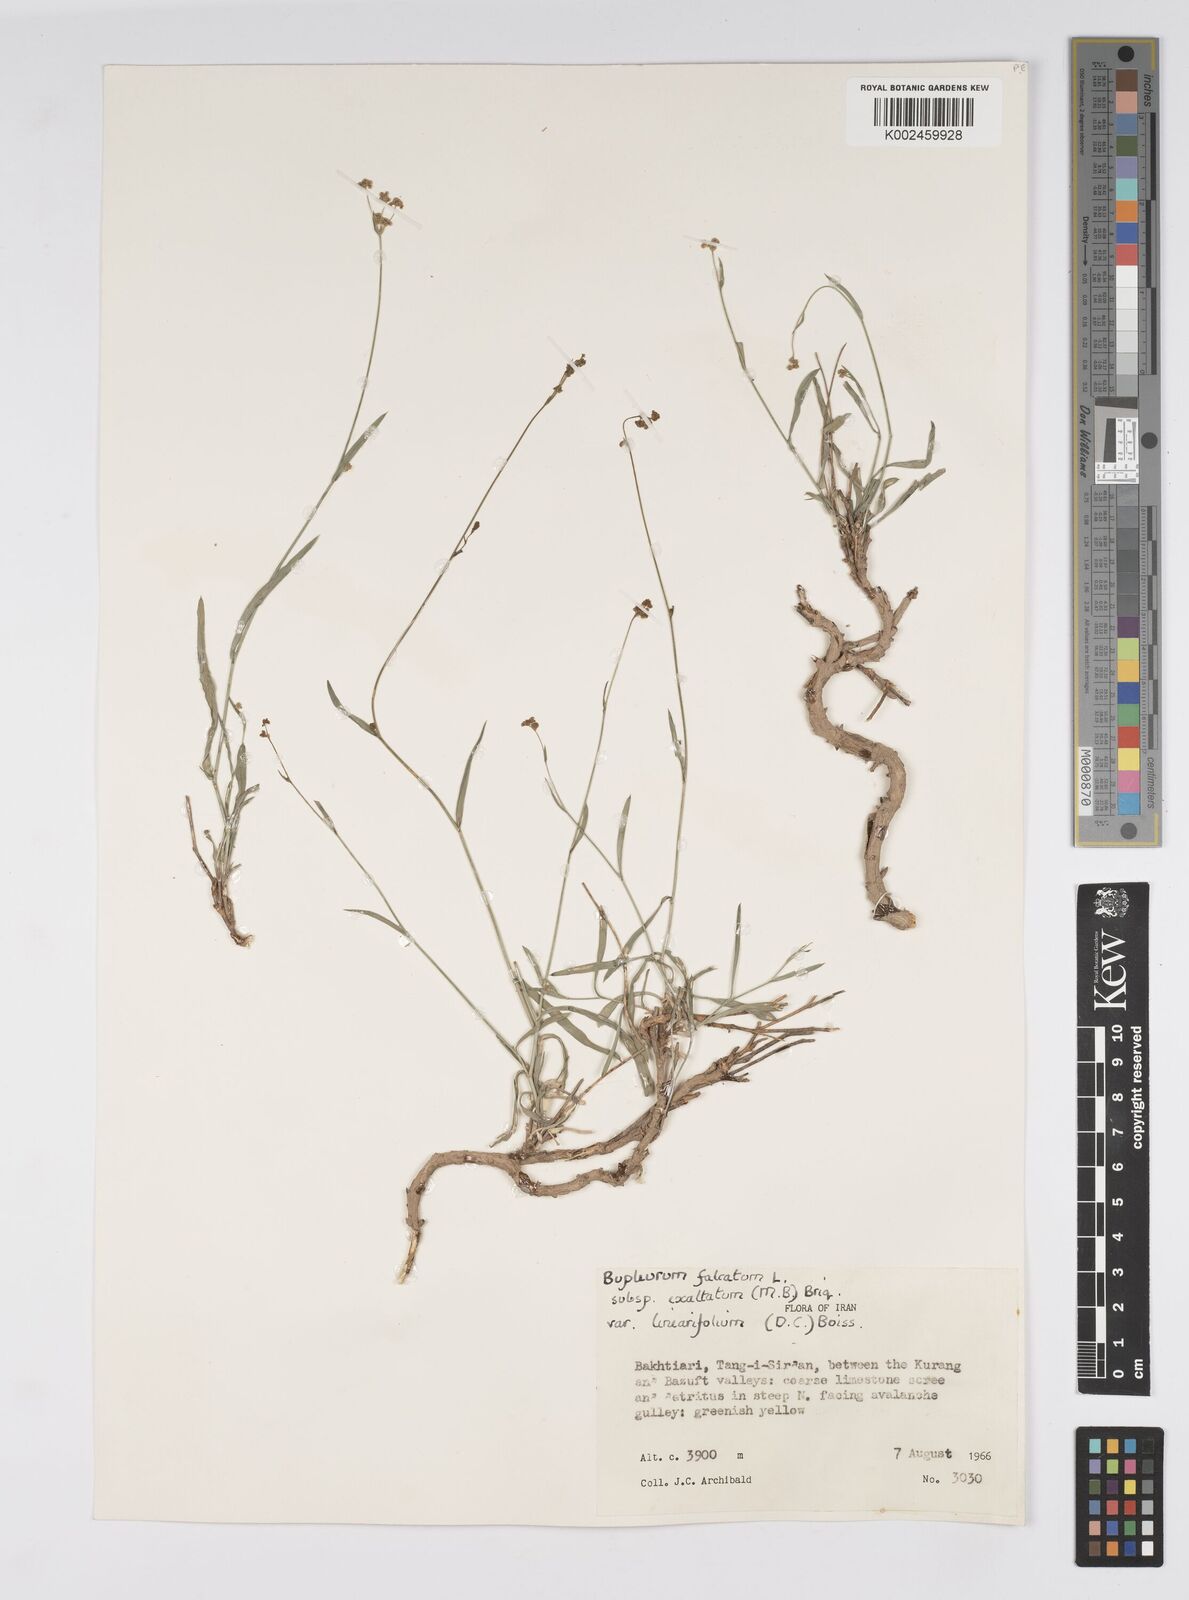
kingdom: Plantae
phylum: Tracheophyta
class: Magnoliopsida
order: Apiales
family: Apiaceae
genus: Bupleurum
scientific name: Bupleurum falcatum
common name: Sickle-leaved hare's-ear
